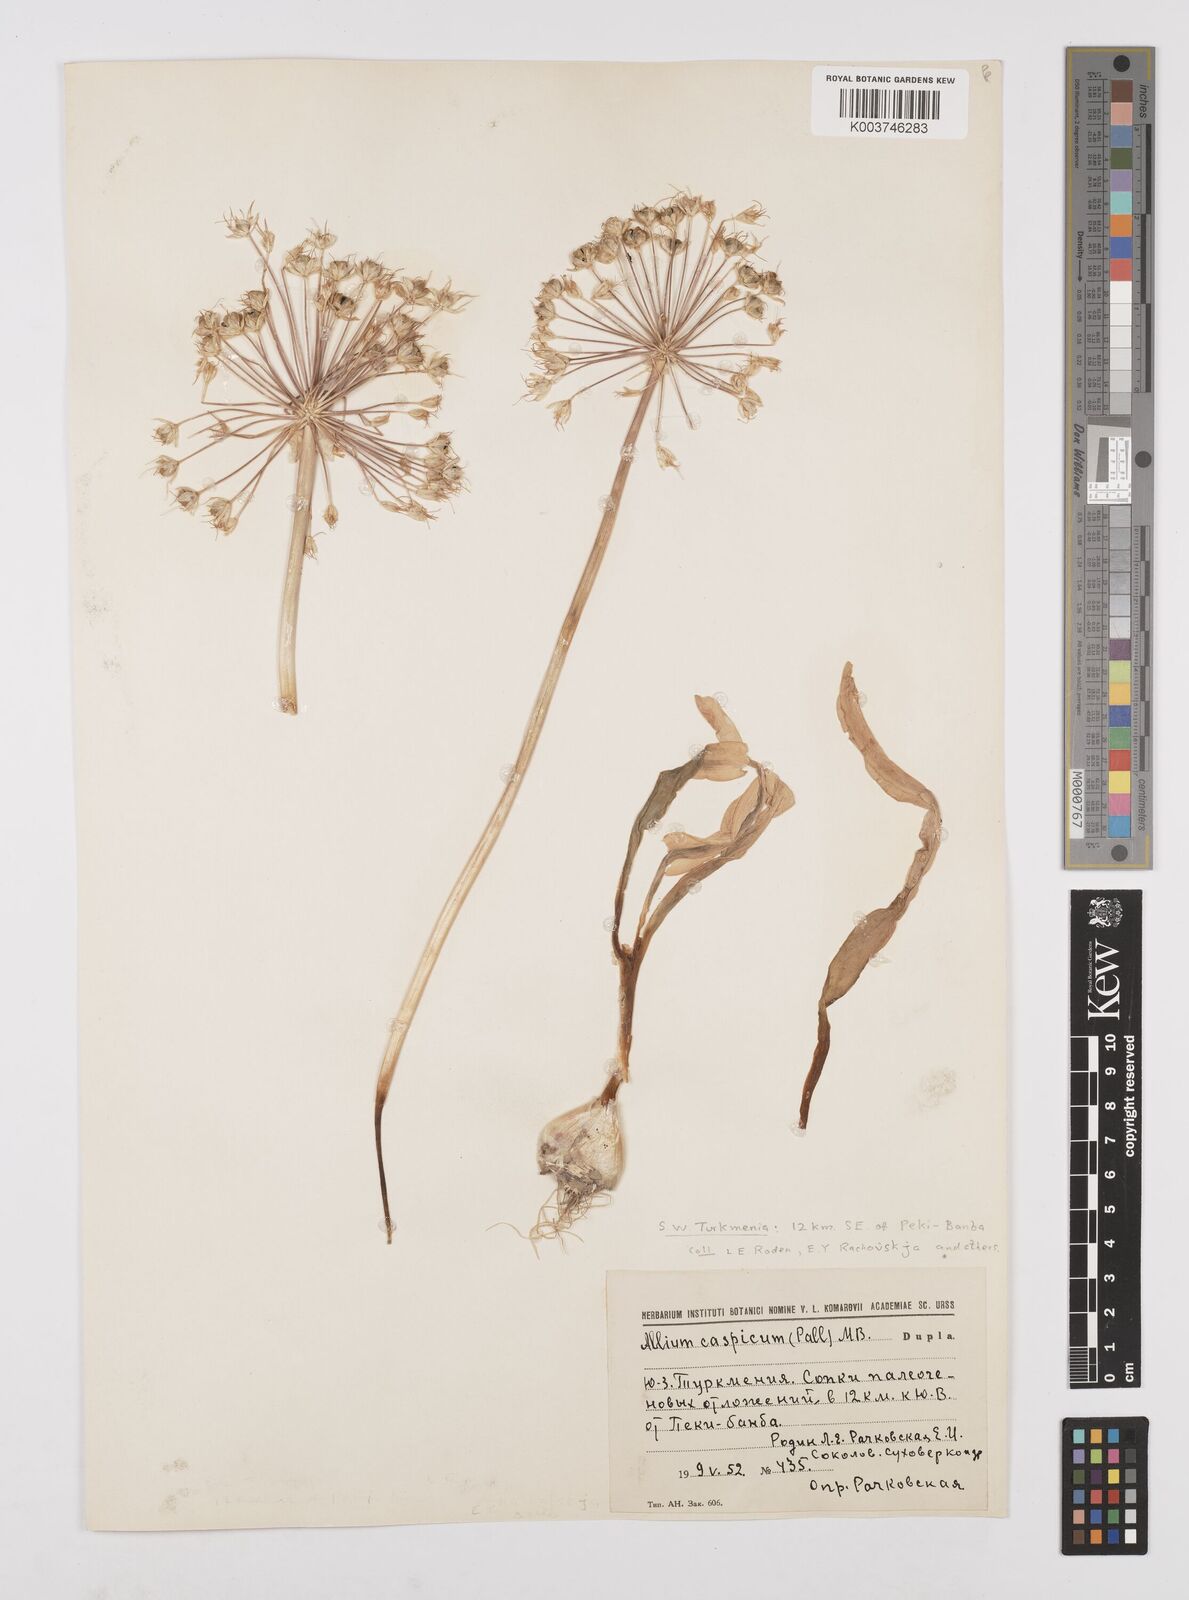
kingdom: Plantae
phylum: Tracheophyta
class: Liliopsida
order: Asparagales
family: Amaryllidaceae
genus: Allium
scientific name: Allium caspium
